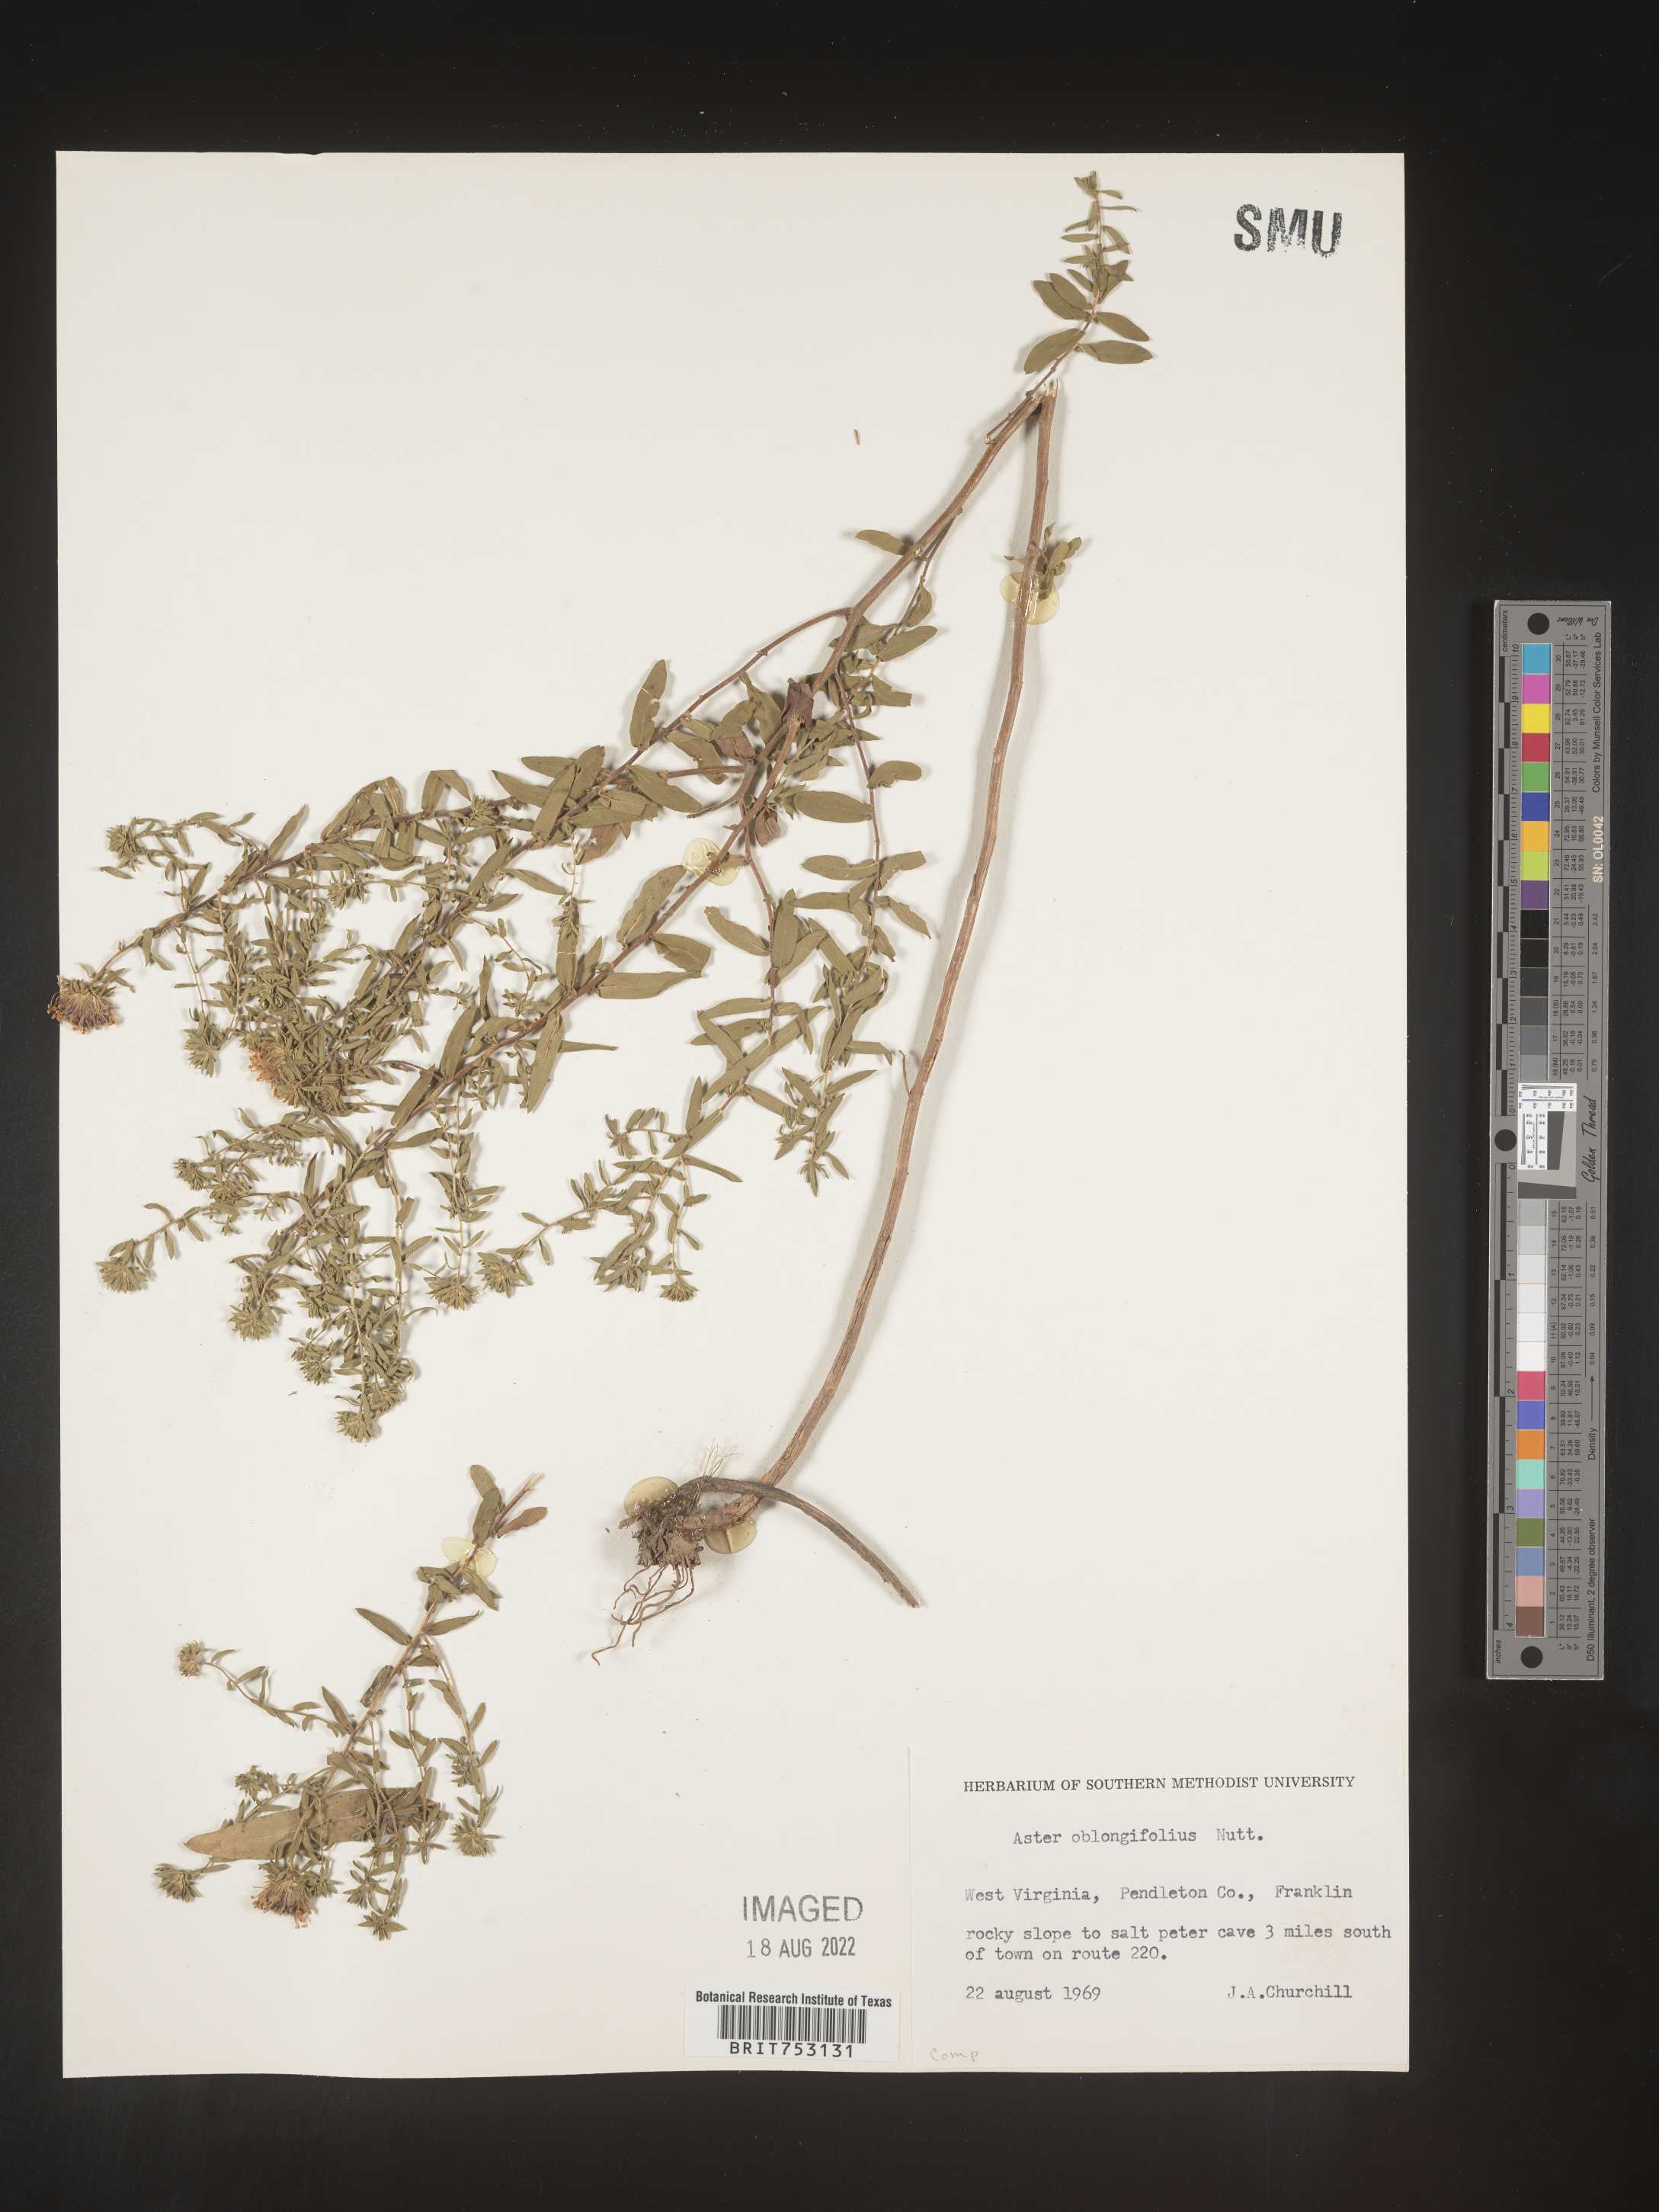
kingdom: Plantae
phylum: Tracheophyta
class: Magnoliopsida
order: Asterales
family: Asteraceae
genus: Symphyotrichum
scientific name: Symphyotrichum oblongifolium
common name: Aromatic aster
